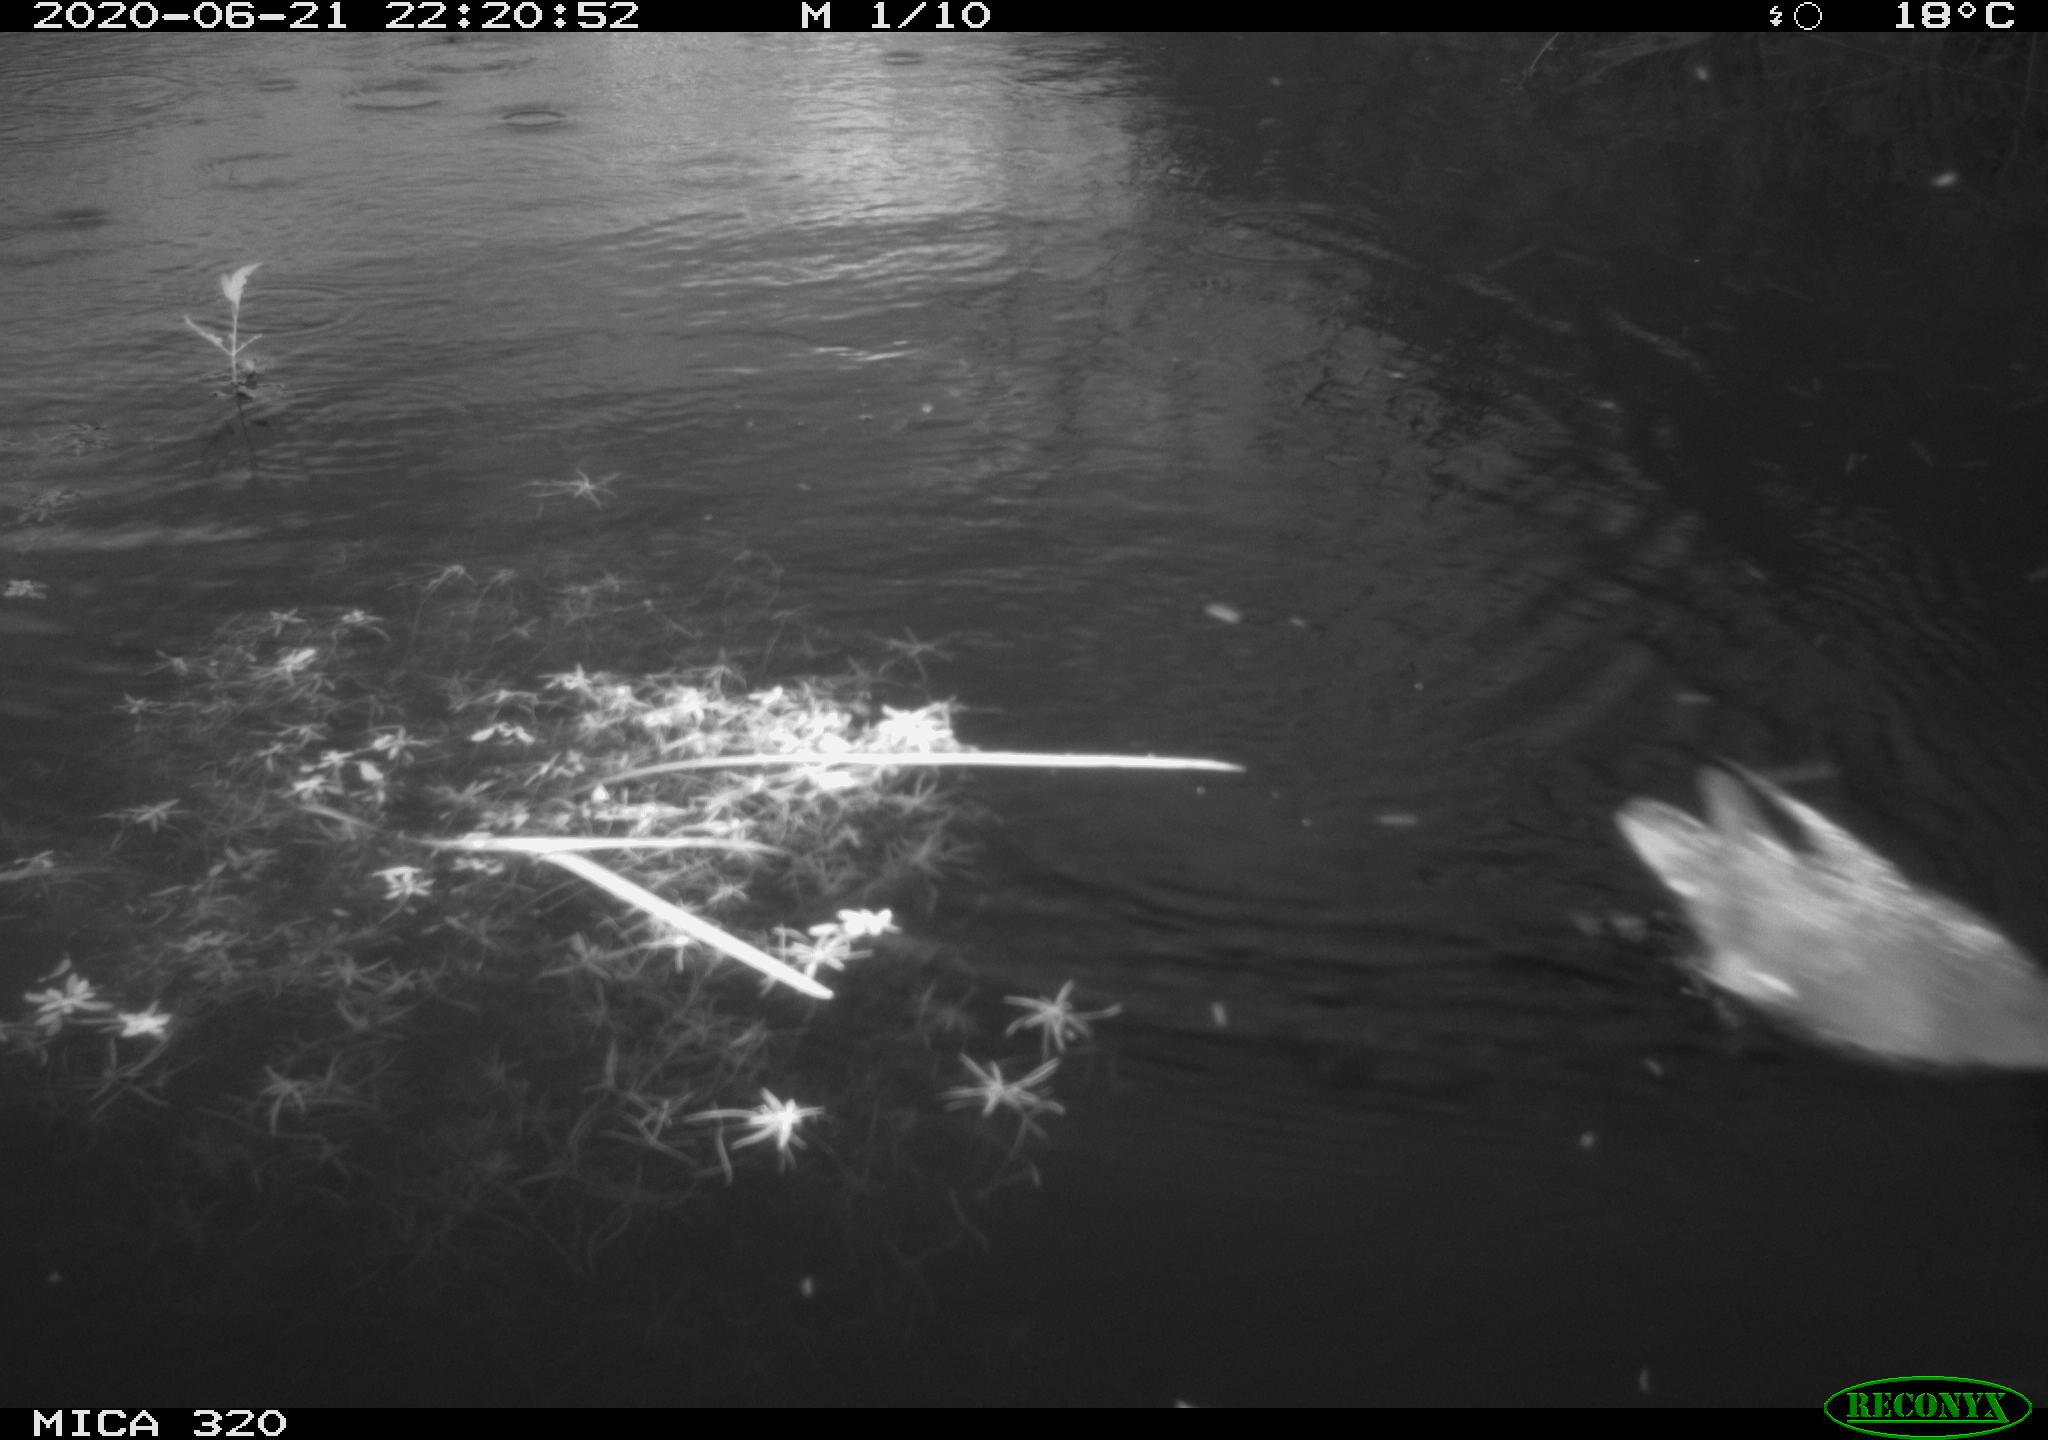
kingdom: Animalia
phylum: Chordata
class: Aves
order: Anseriformes
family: Anatidae
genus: Anas
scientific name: Anas platyrhynchos
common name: Mallard
